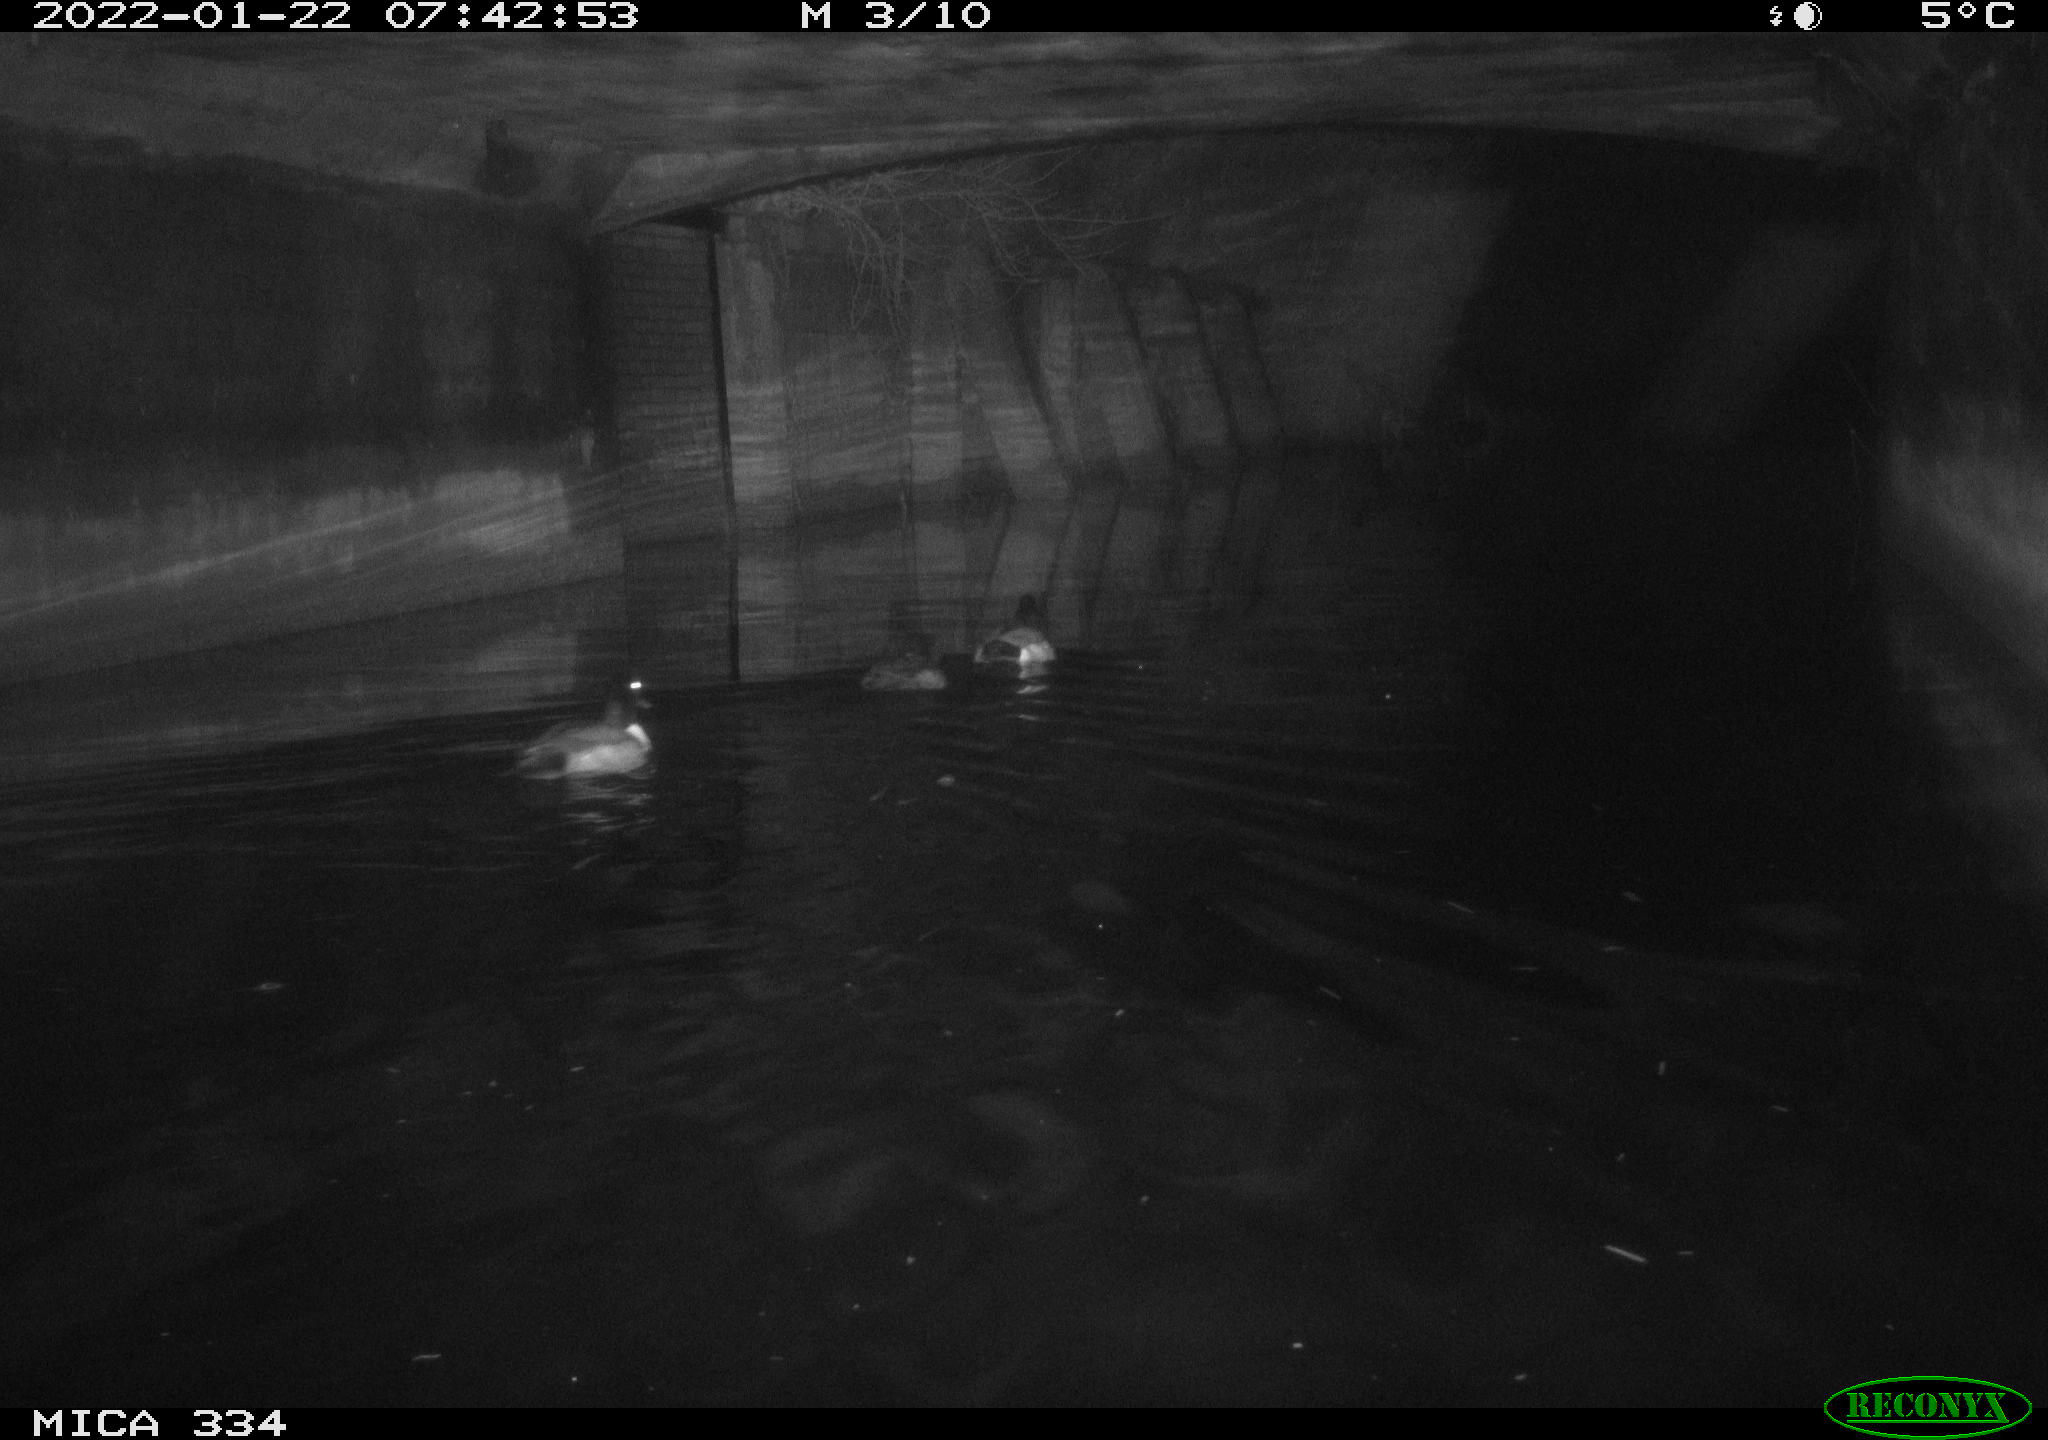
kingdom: Animalia
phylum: Chordata
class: Aves
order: Anseriformes
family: Anatidae
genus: Anas
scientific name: Anas platyrhynchos
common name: Mallard
